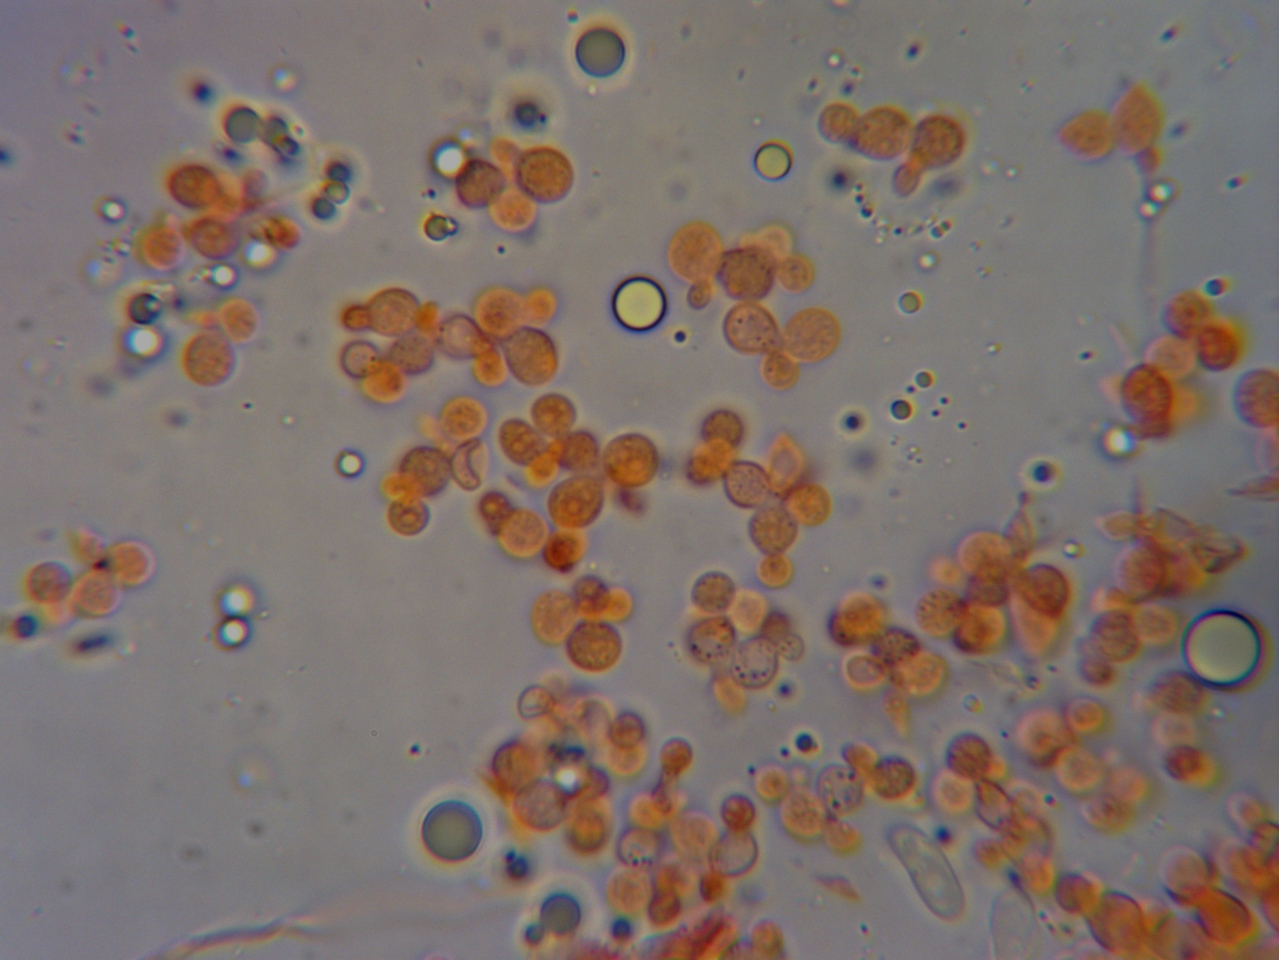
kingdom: Fungi
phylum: Basidiomycota
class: Tremellomycetes
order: Tremellales
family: Tremellaceae
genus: Tremella
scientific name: Tremella versicolor
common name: voksskind-bævresvamp
